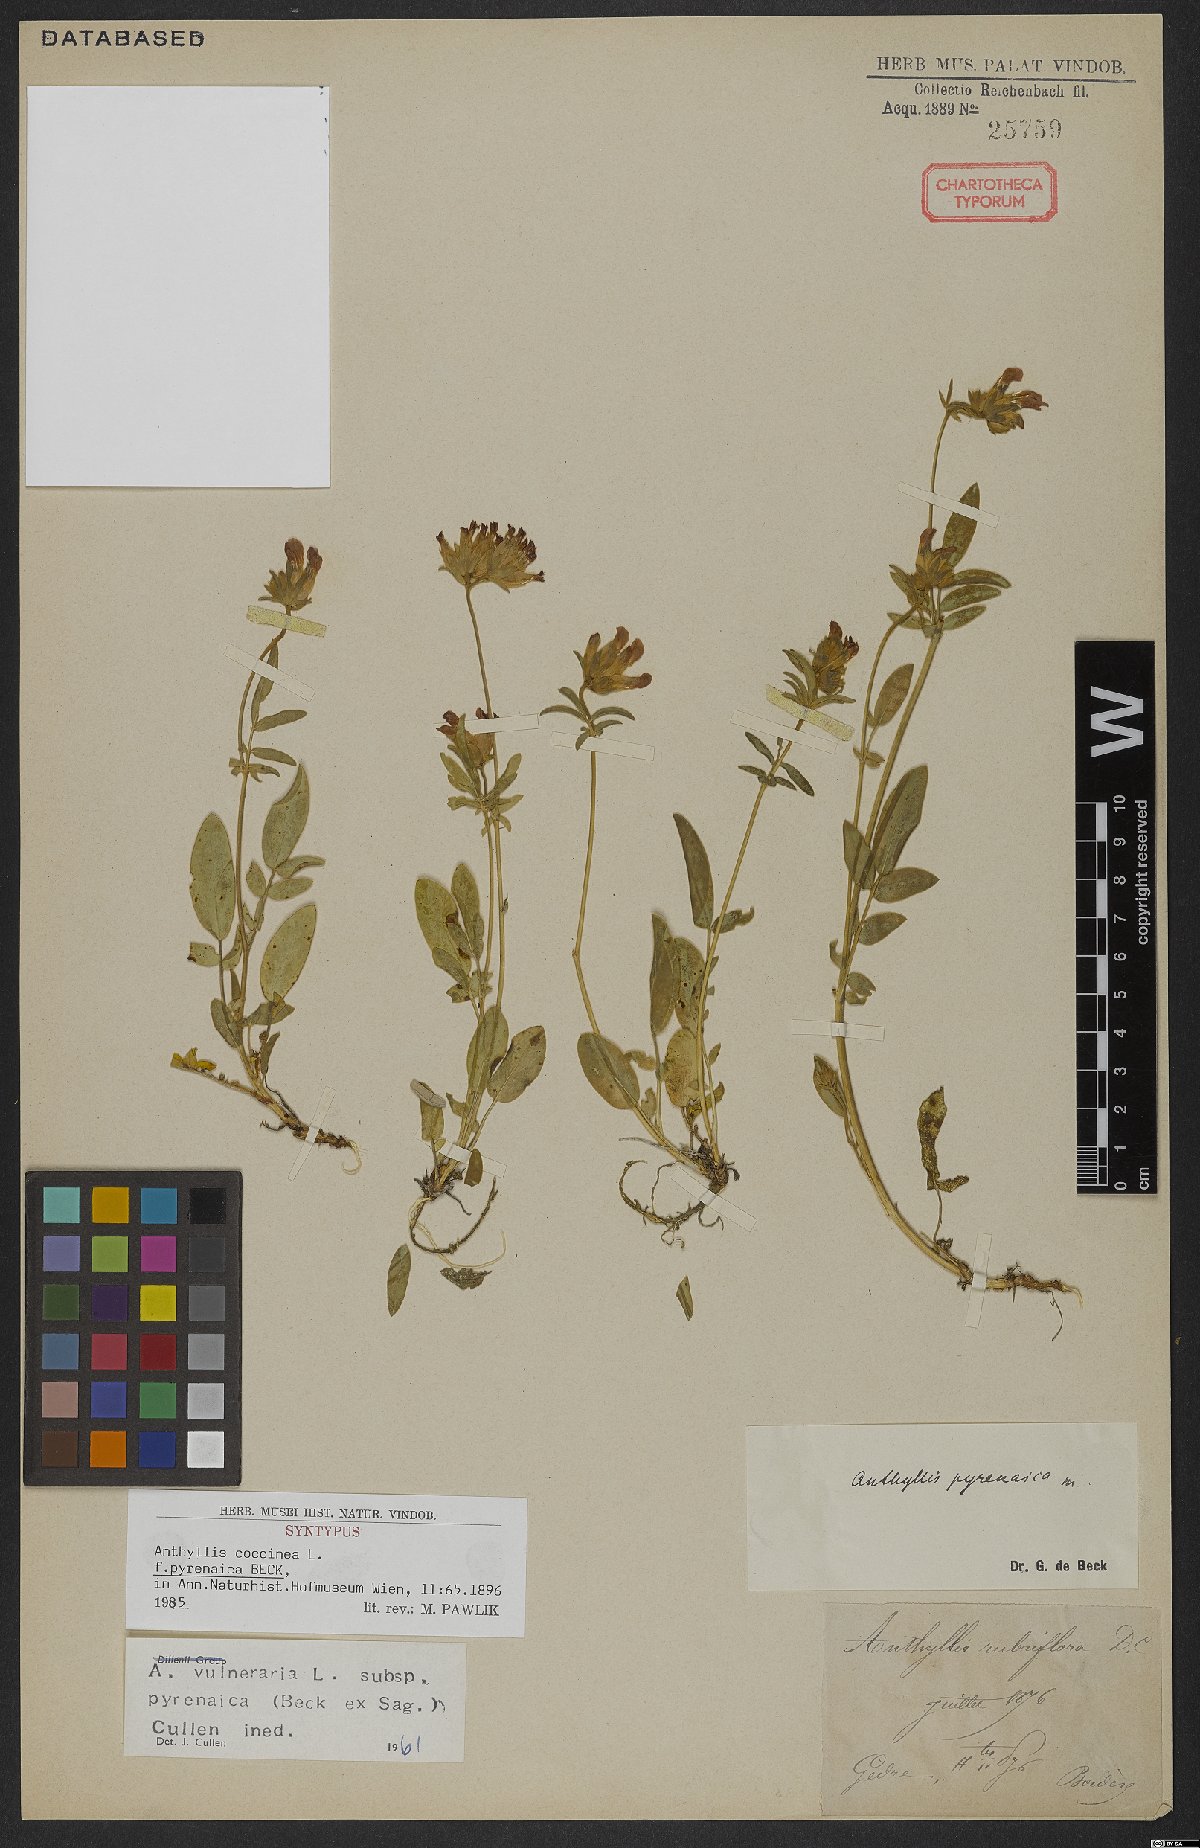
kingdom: Plantae
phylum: Tracheophyta
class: Magnoliopsida
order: Fabales
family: Fabaceae
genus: Anthyllis
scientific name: Anthyllis vulneraria
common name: Kidney vetch
